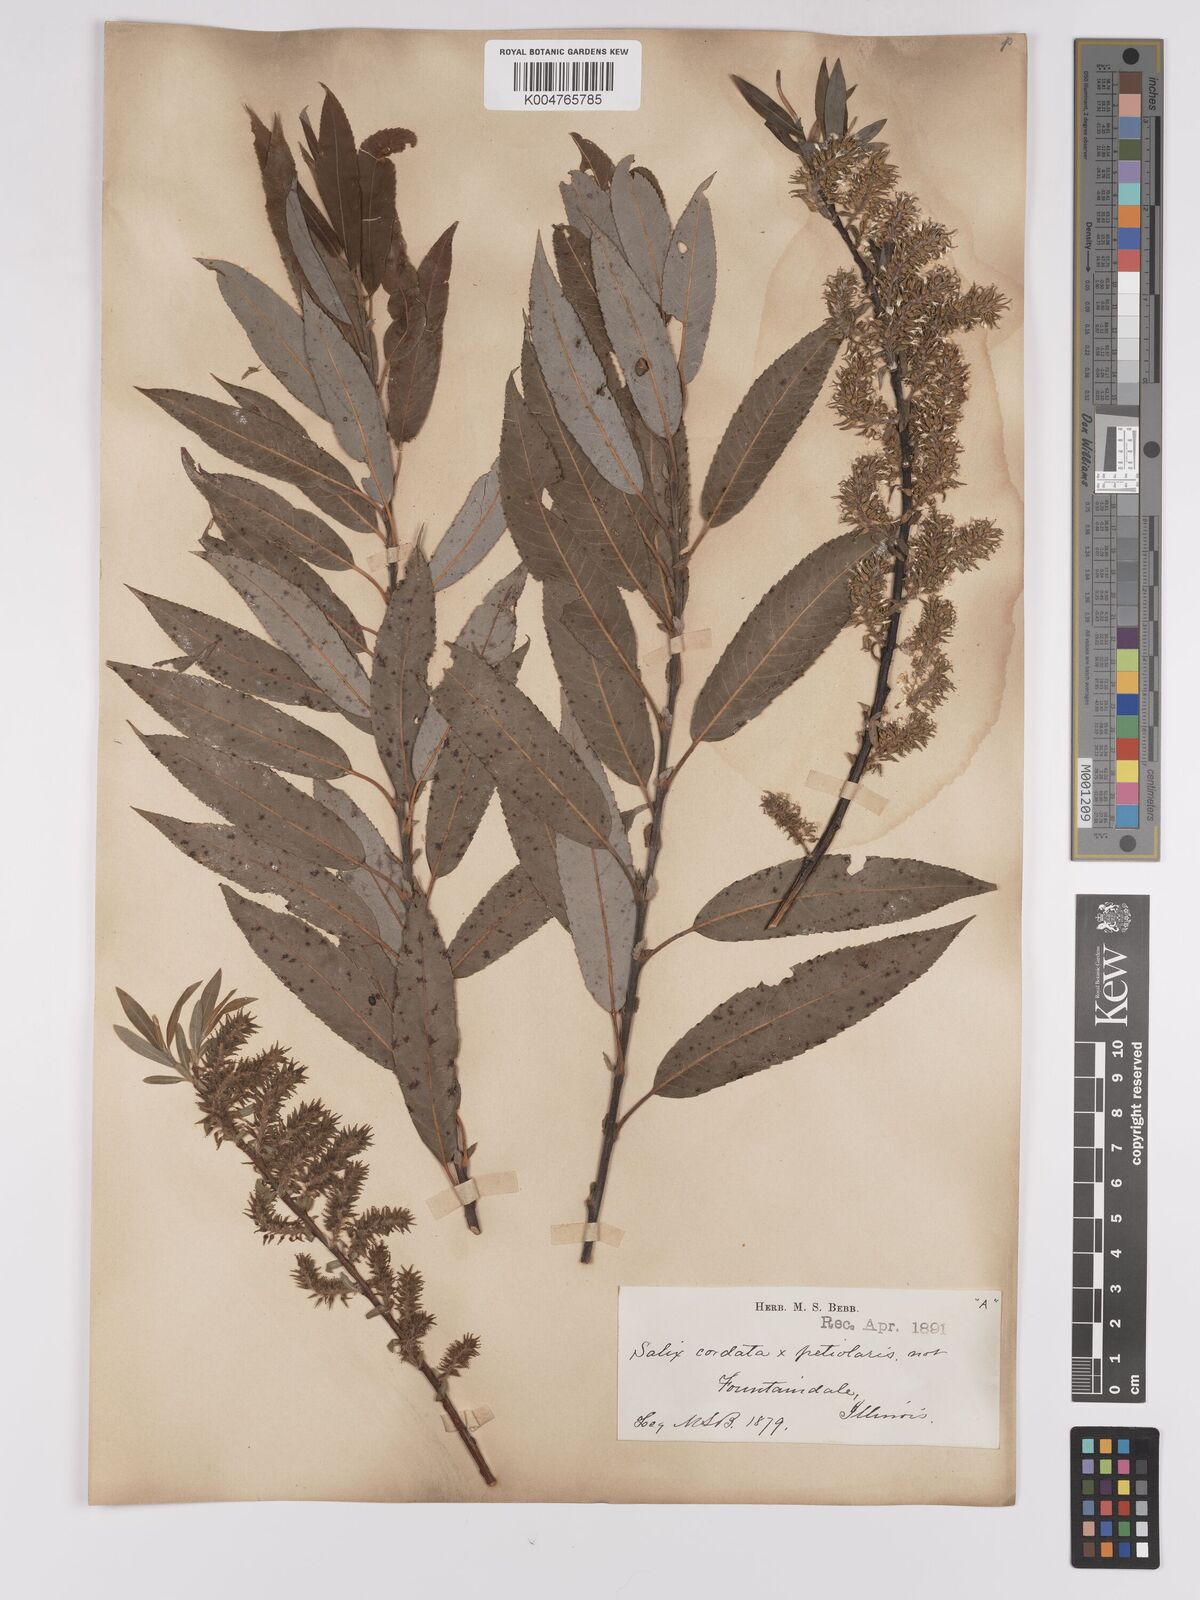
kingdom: Plantae
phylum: Tracheophyta
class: Magnoliopsida
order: Malpighiales
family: Salicaceae
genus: Salix
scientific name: Salix cordata
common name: Heart-leaf willow
